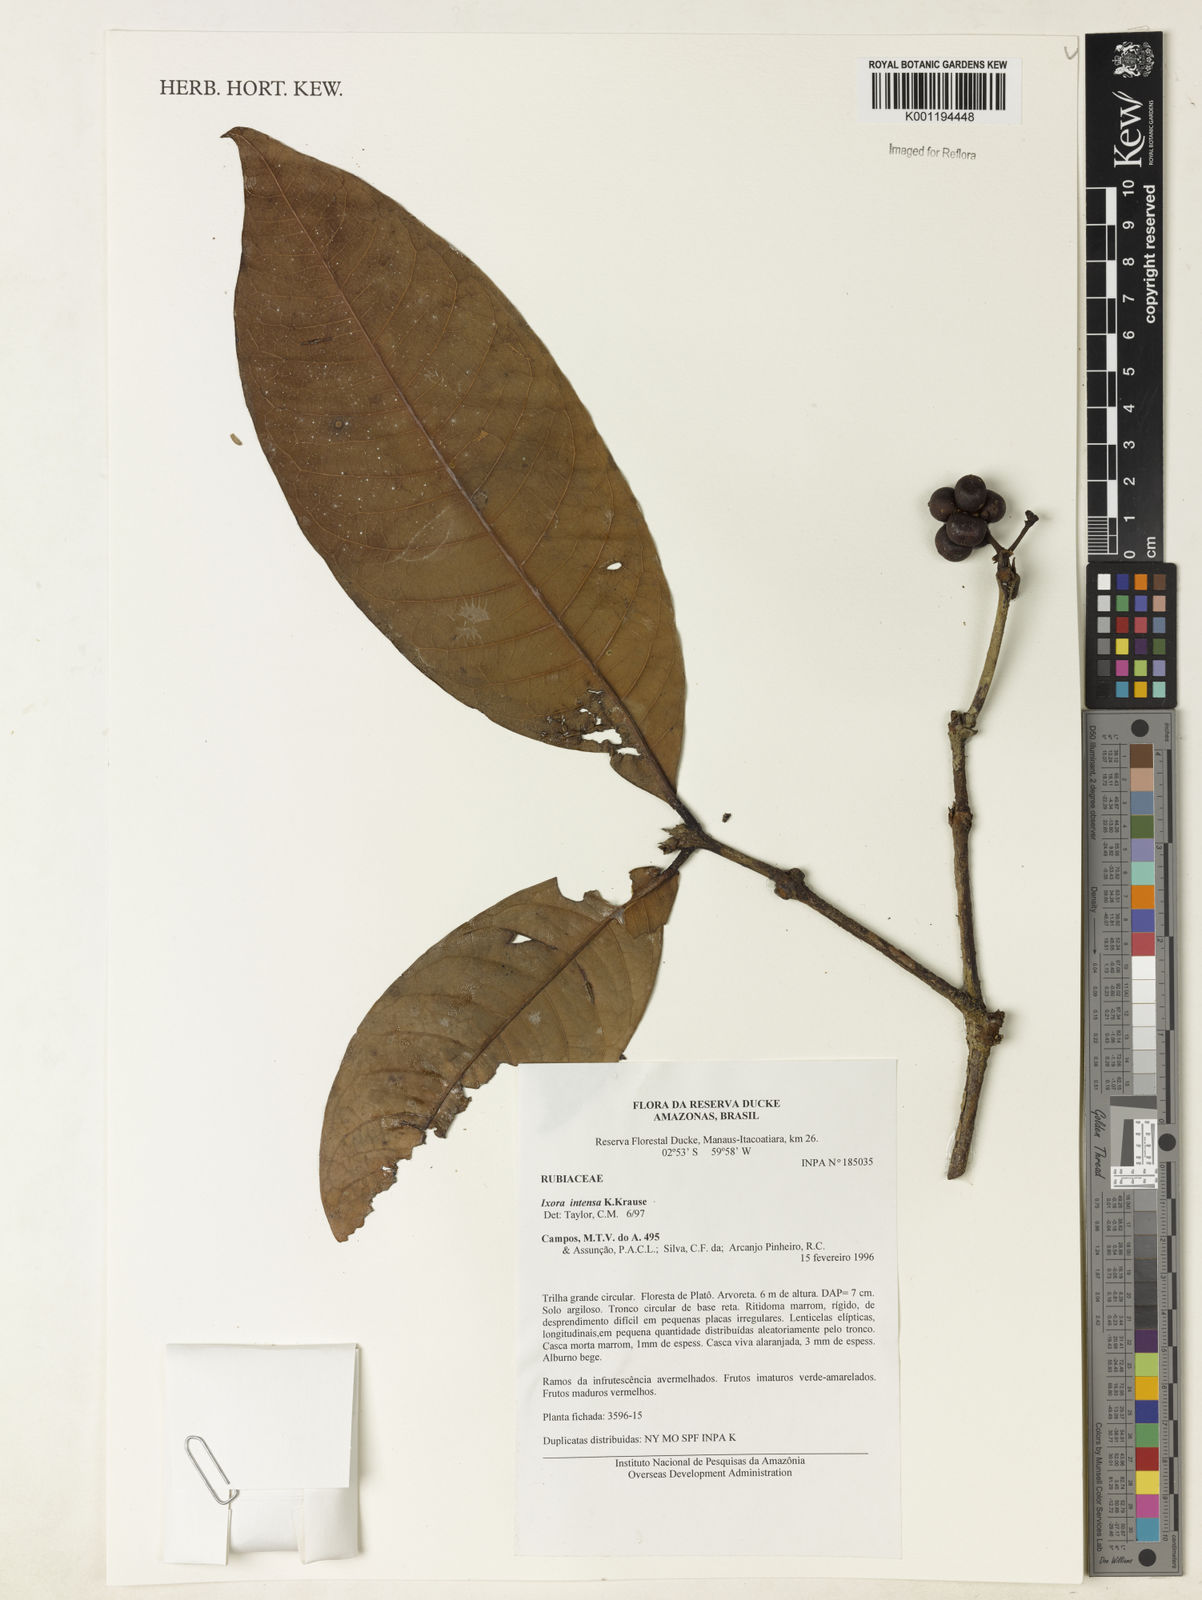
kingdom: Plantae
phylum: Tracheophyta
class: Magnoliopsida
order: Gentianales
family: Rubiaceae
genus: Ixora
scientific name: Ixora intensa
